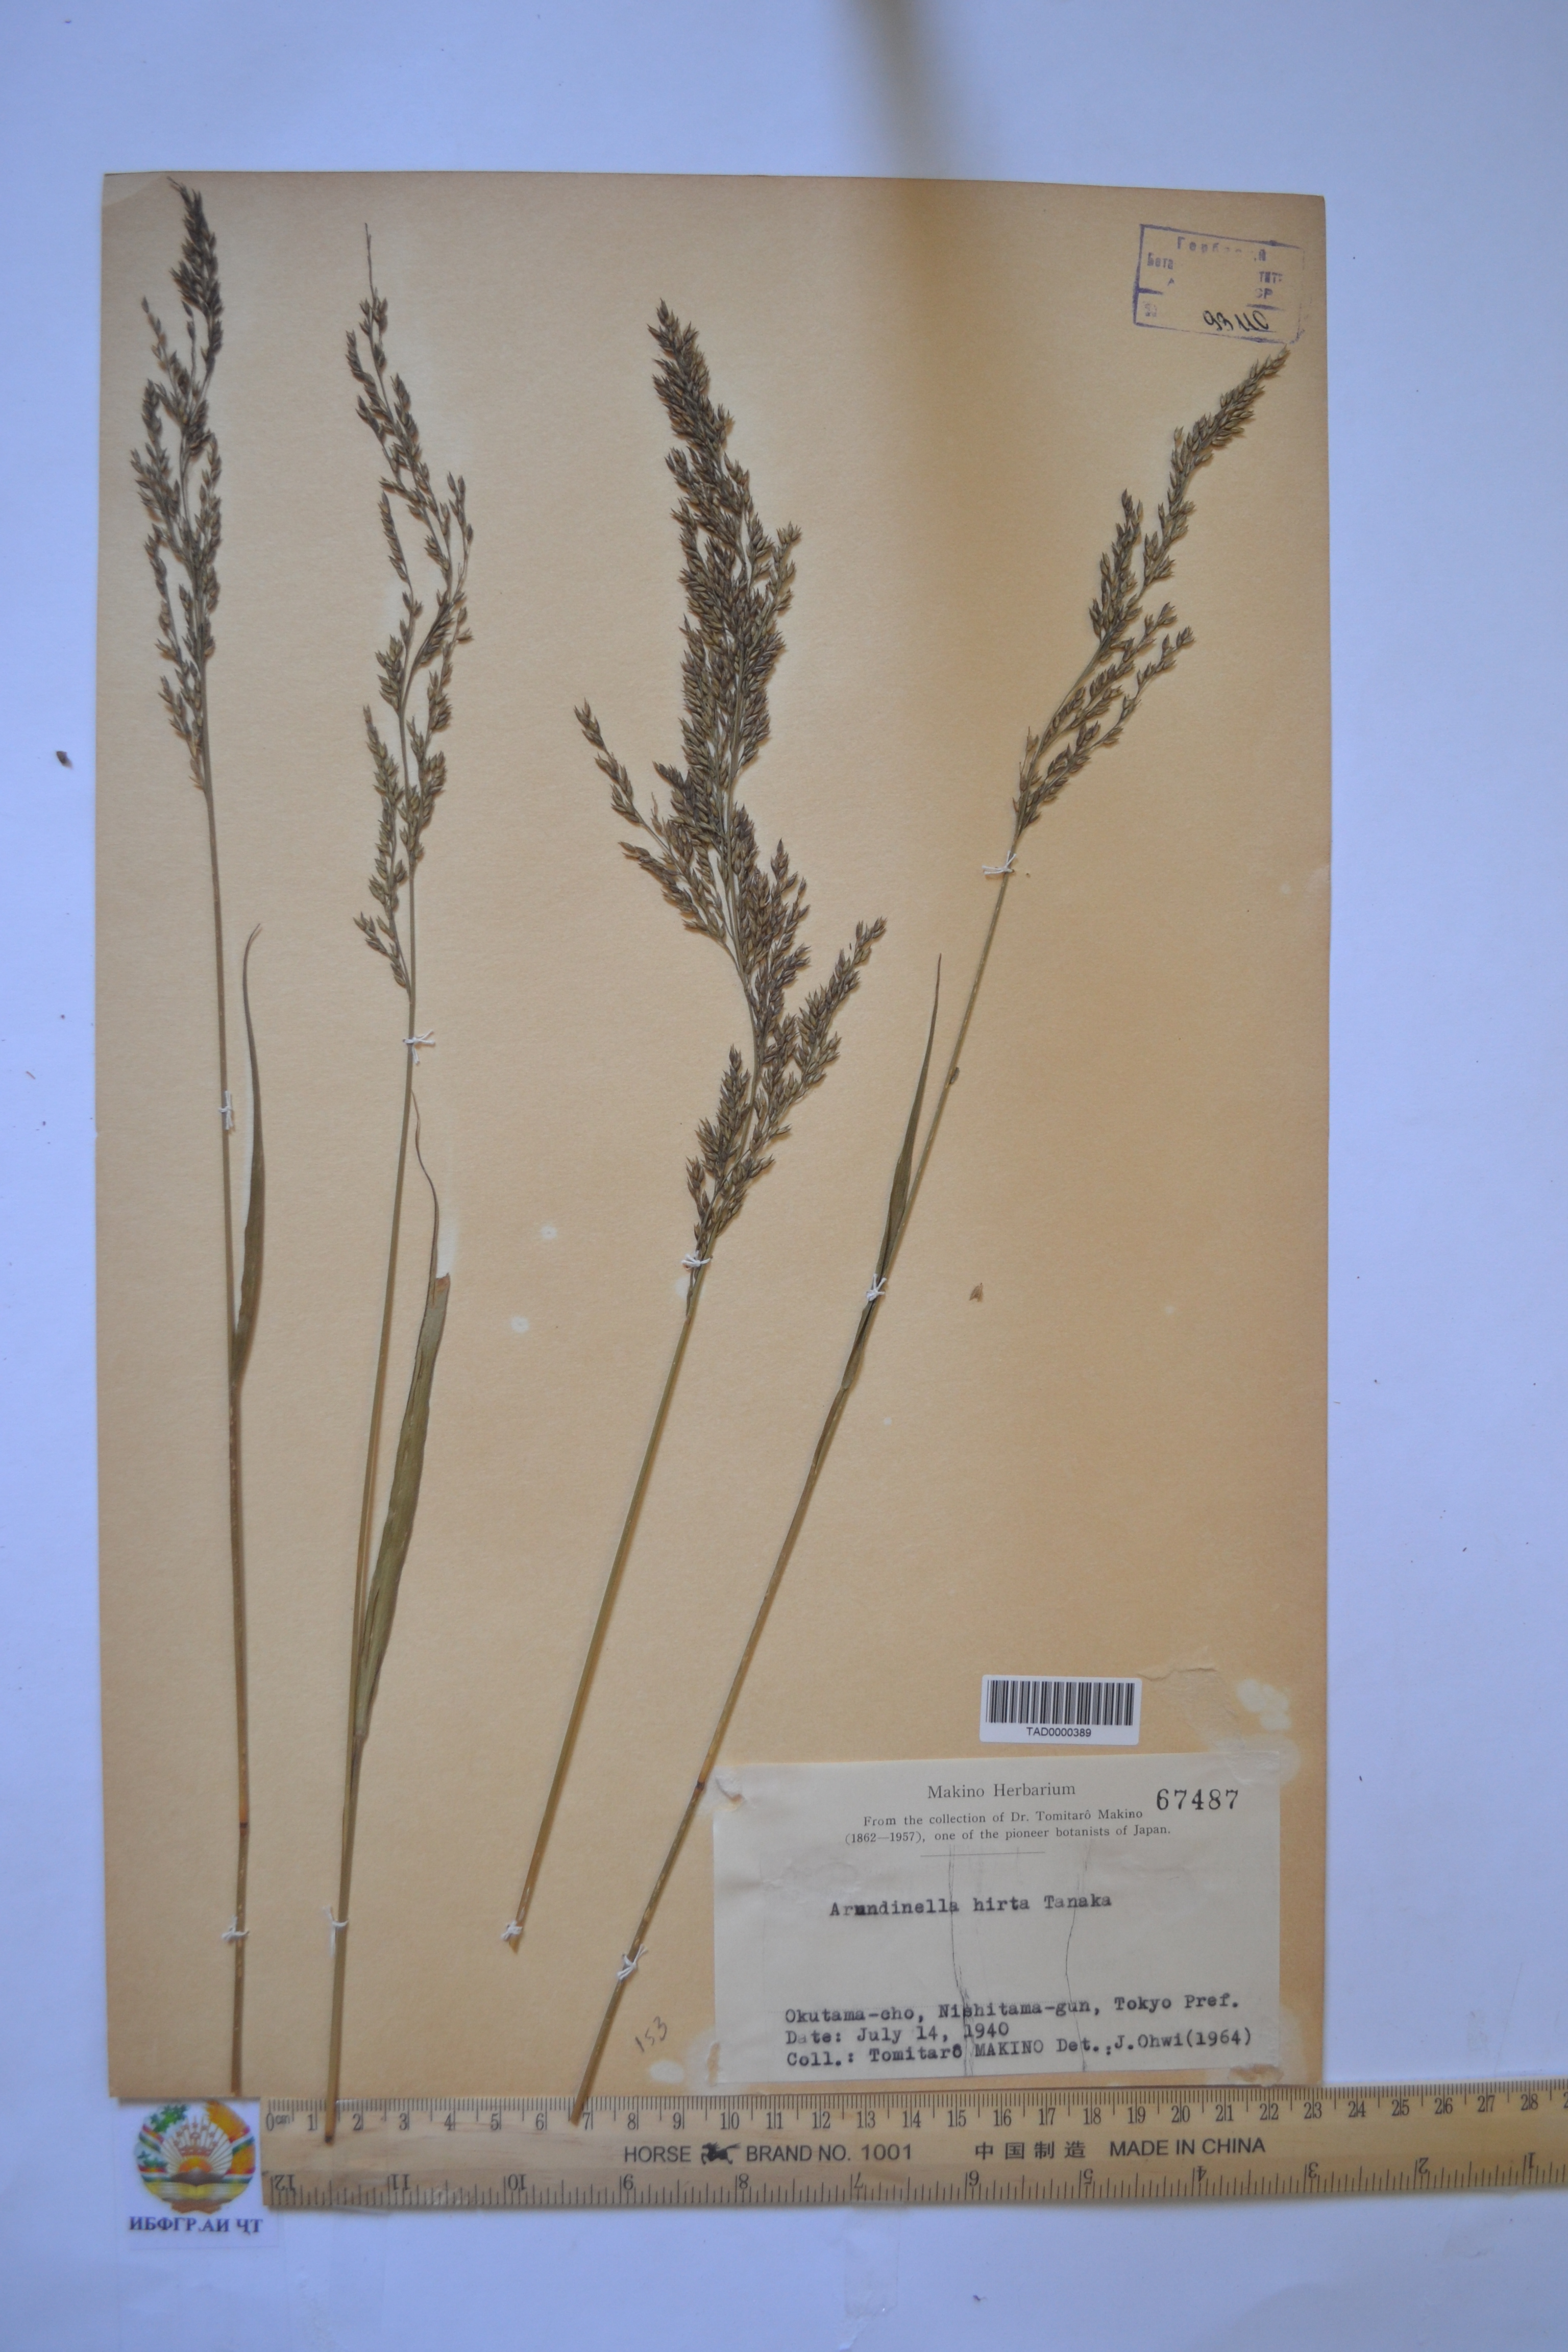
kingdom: Plantae
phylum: Tracheophyta
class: Liliopsida
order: Poales
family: Poaceae
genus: Arundinella
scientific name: Arundinella hirta
